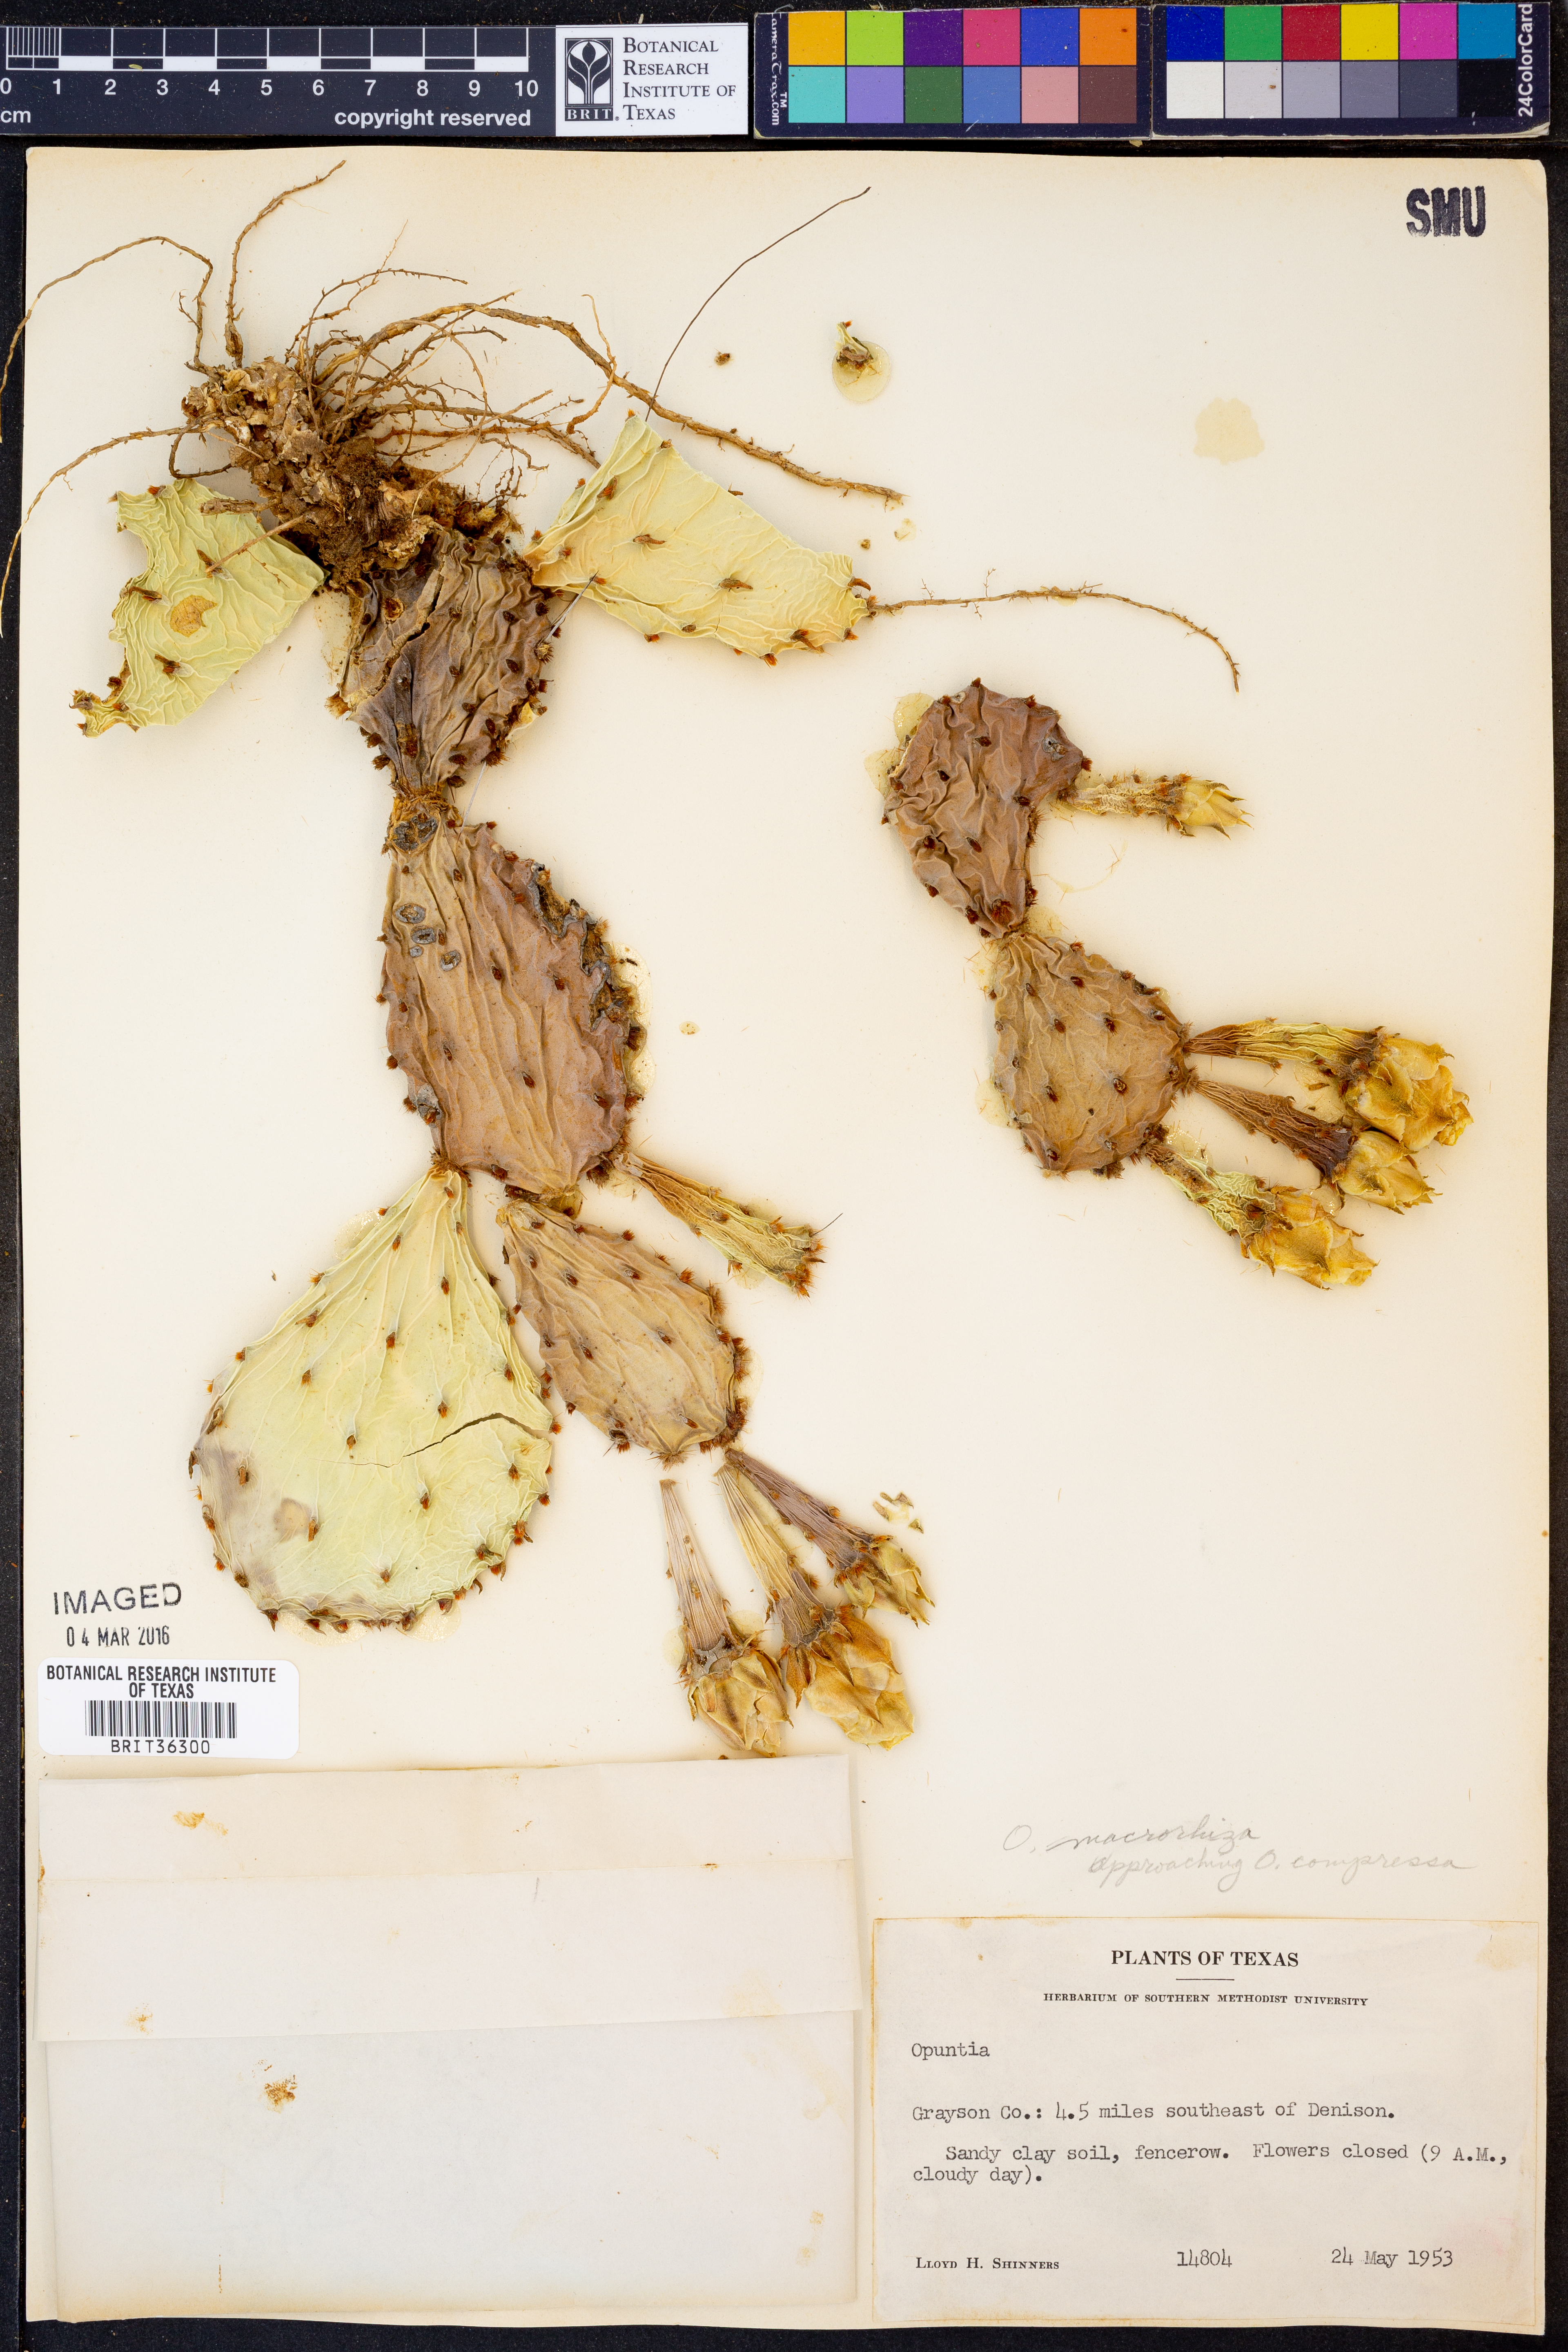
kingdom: Plantae
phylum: Tracheophyta
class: Magnoliopsida
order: Caryophyllales
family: Cactaceae
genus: Opuntia
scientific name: Opuntia macrorhiza
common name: Grassland pricklypear
